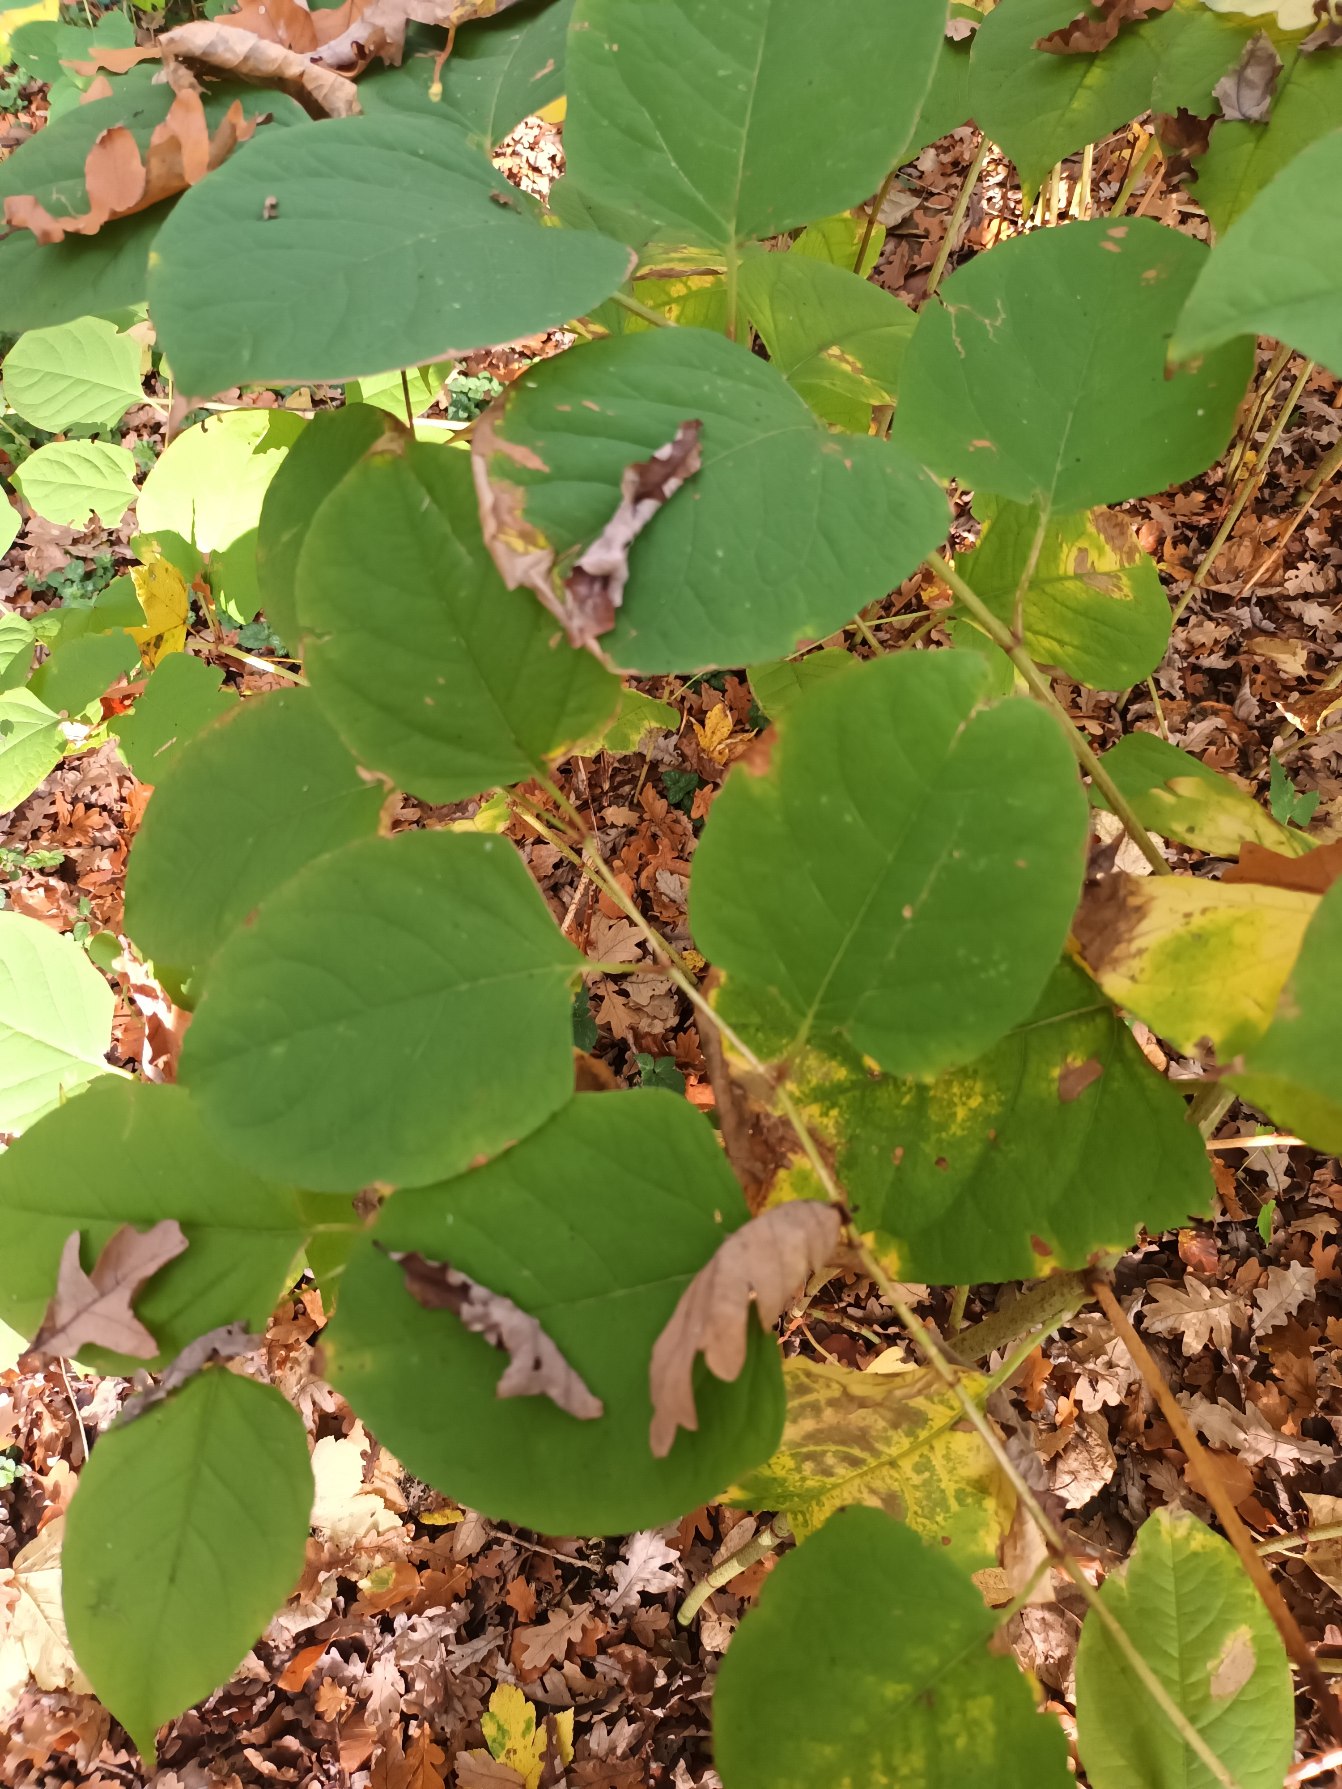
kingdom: Plantae
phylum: Tracheophyta
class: Magnoliopsida
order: Caryophyllales
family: Polygonaceae
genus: Reynoutria
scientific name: Reynoutria japonica
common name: Japan-pileurt
